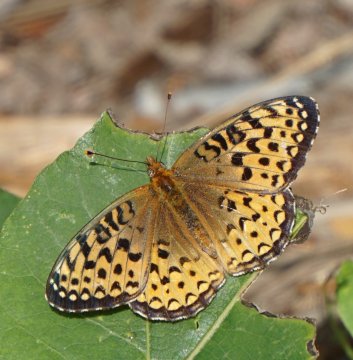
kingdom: Animalia
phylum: Arthropoda
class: Insecta
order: Lepidoptera
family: Nymphalidae
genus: Speyeria
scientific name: Speyeria atlantis
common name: Atlantis Fritillary
